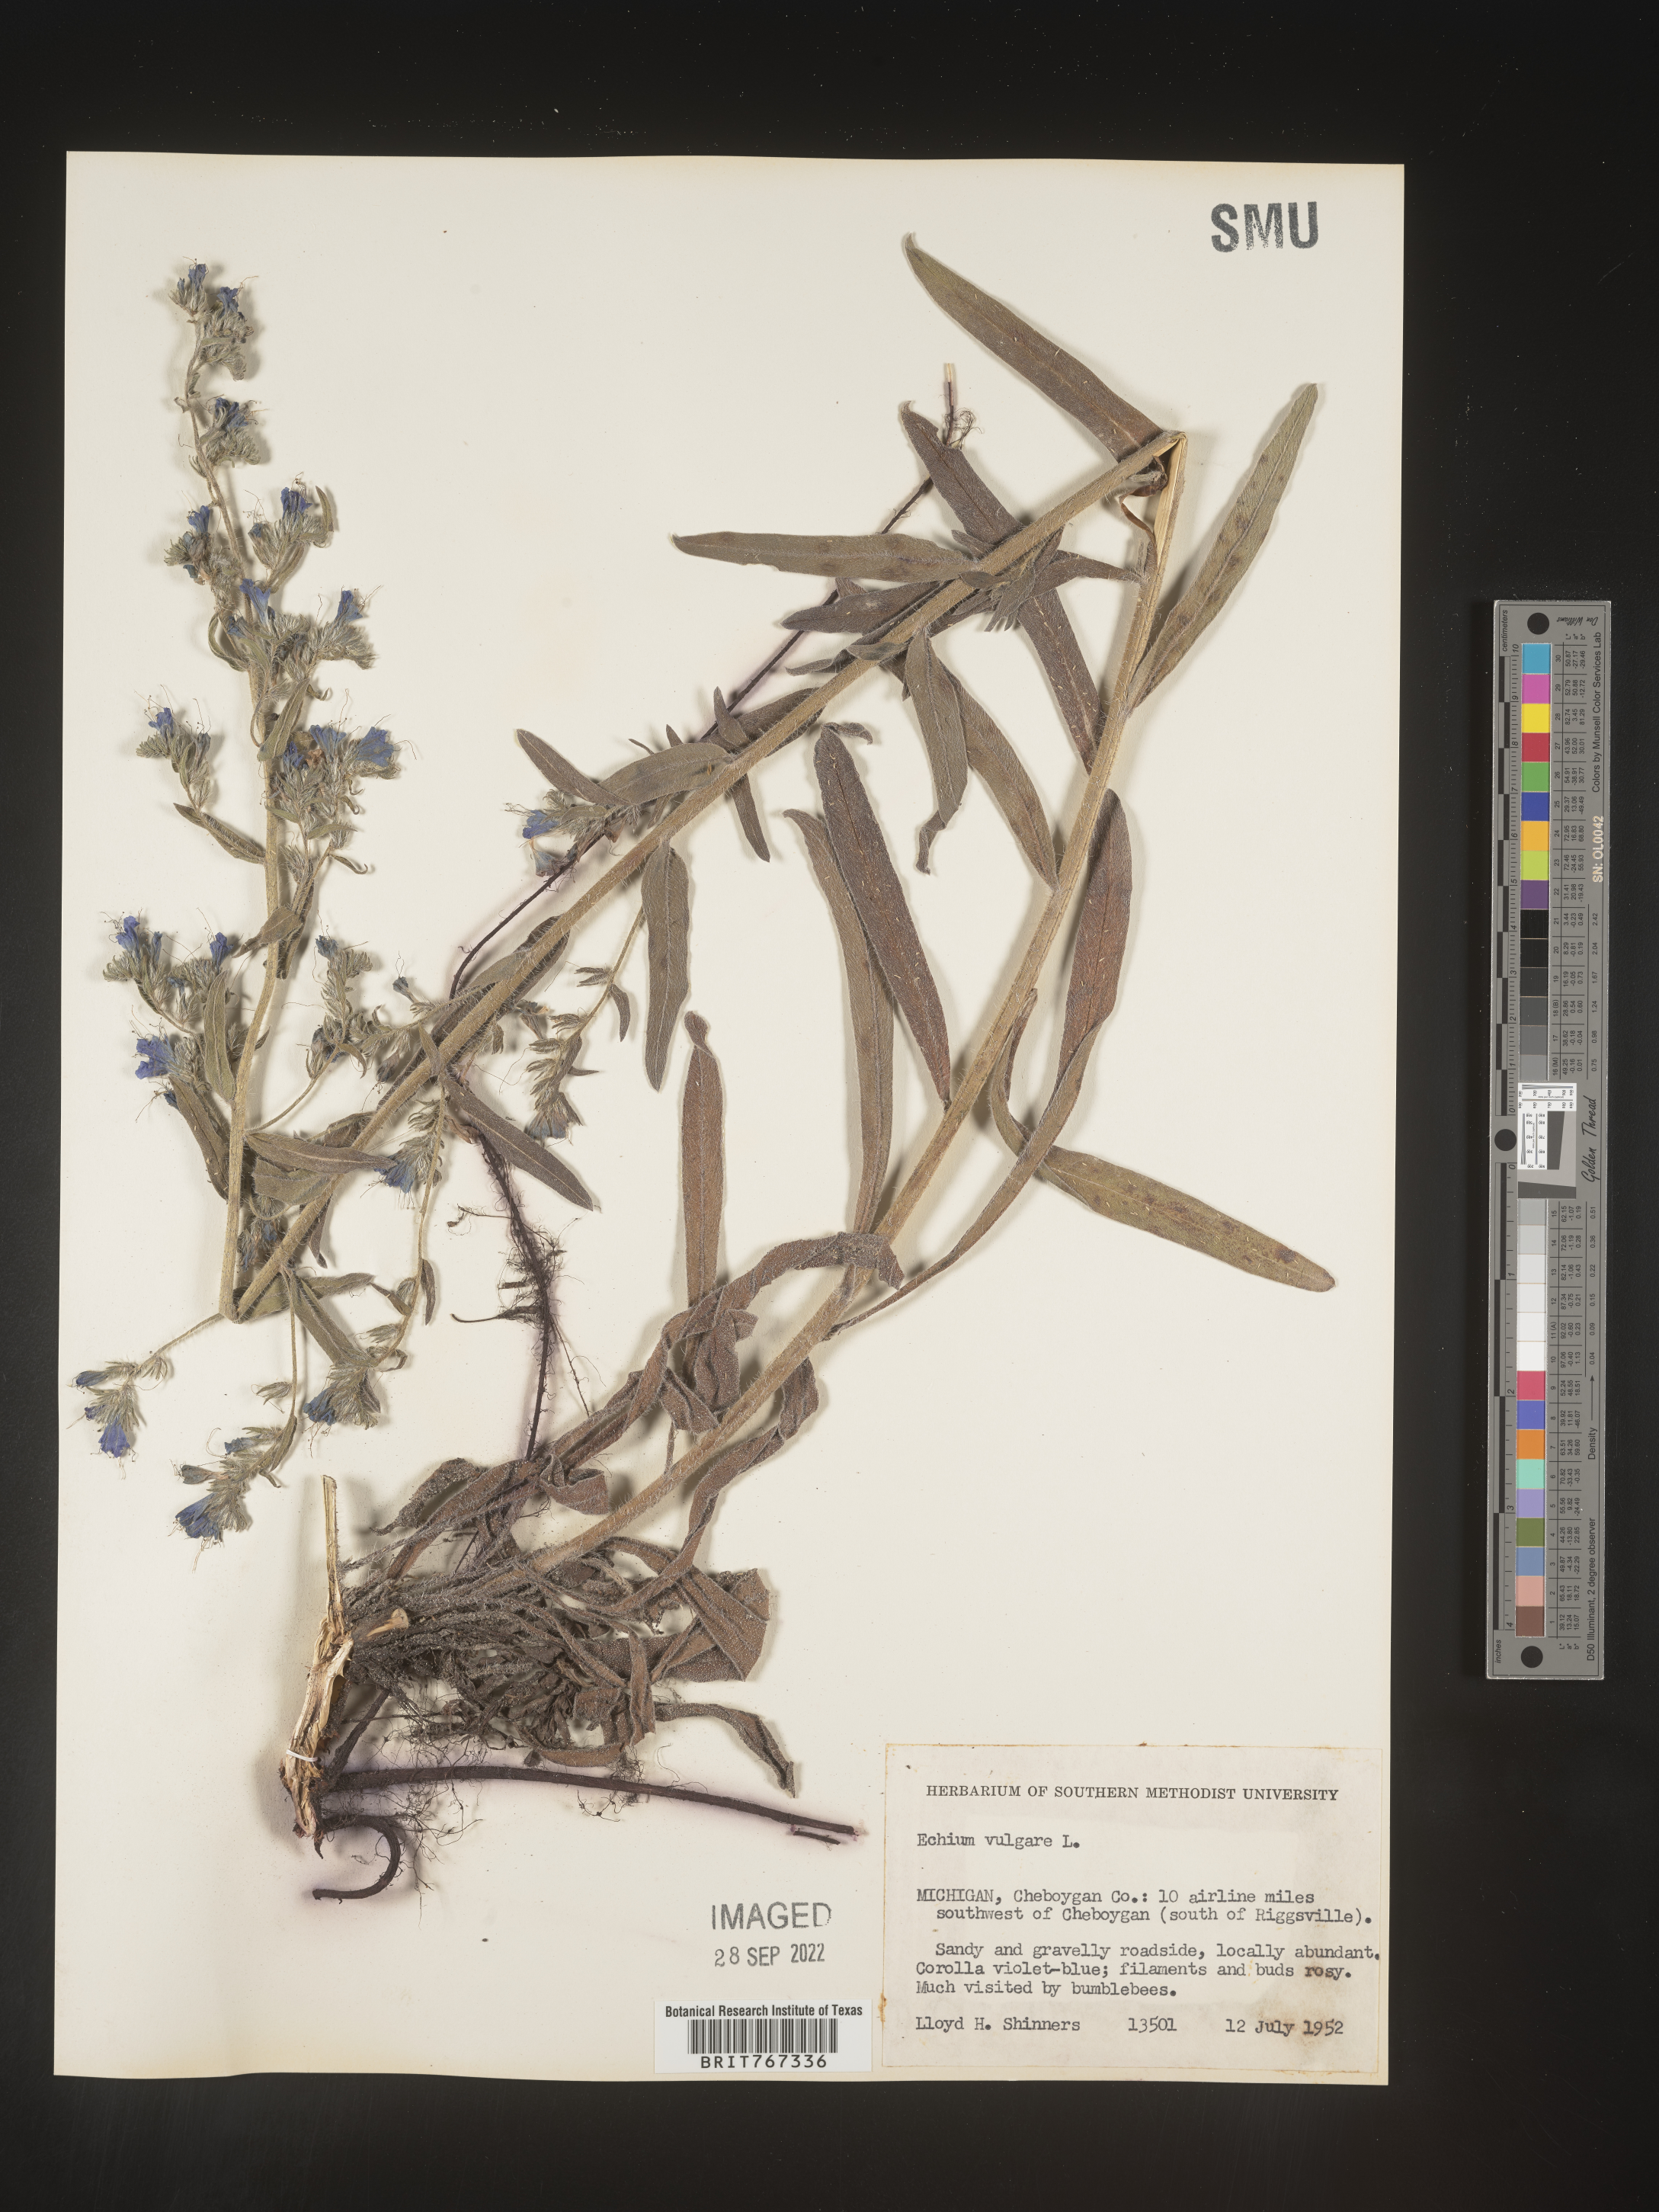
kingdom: Plantae
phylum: Tracheophyta
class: Magnoliopsida
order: Boraginales
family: Boraginaceae
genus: Echium
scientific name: Echium
